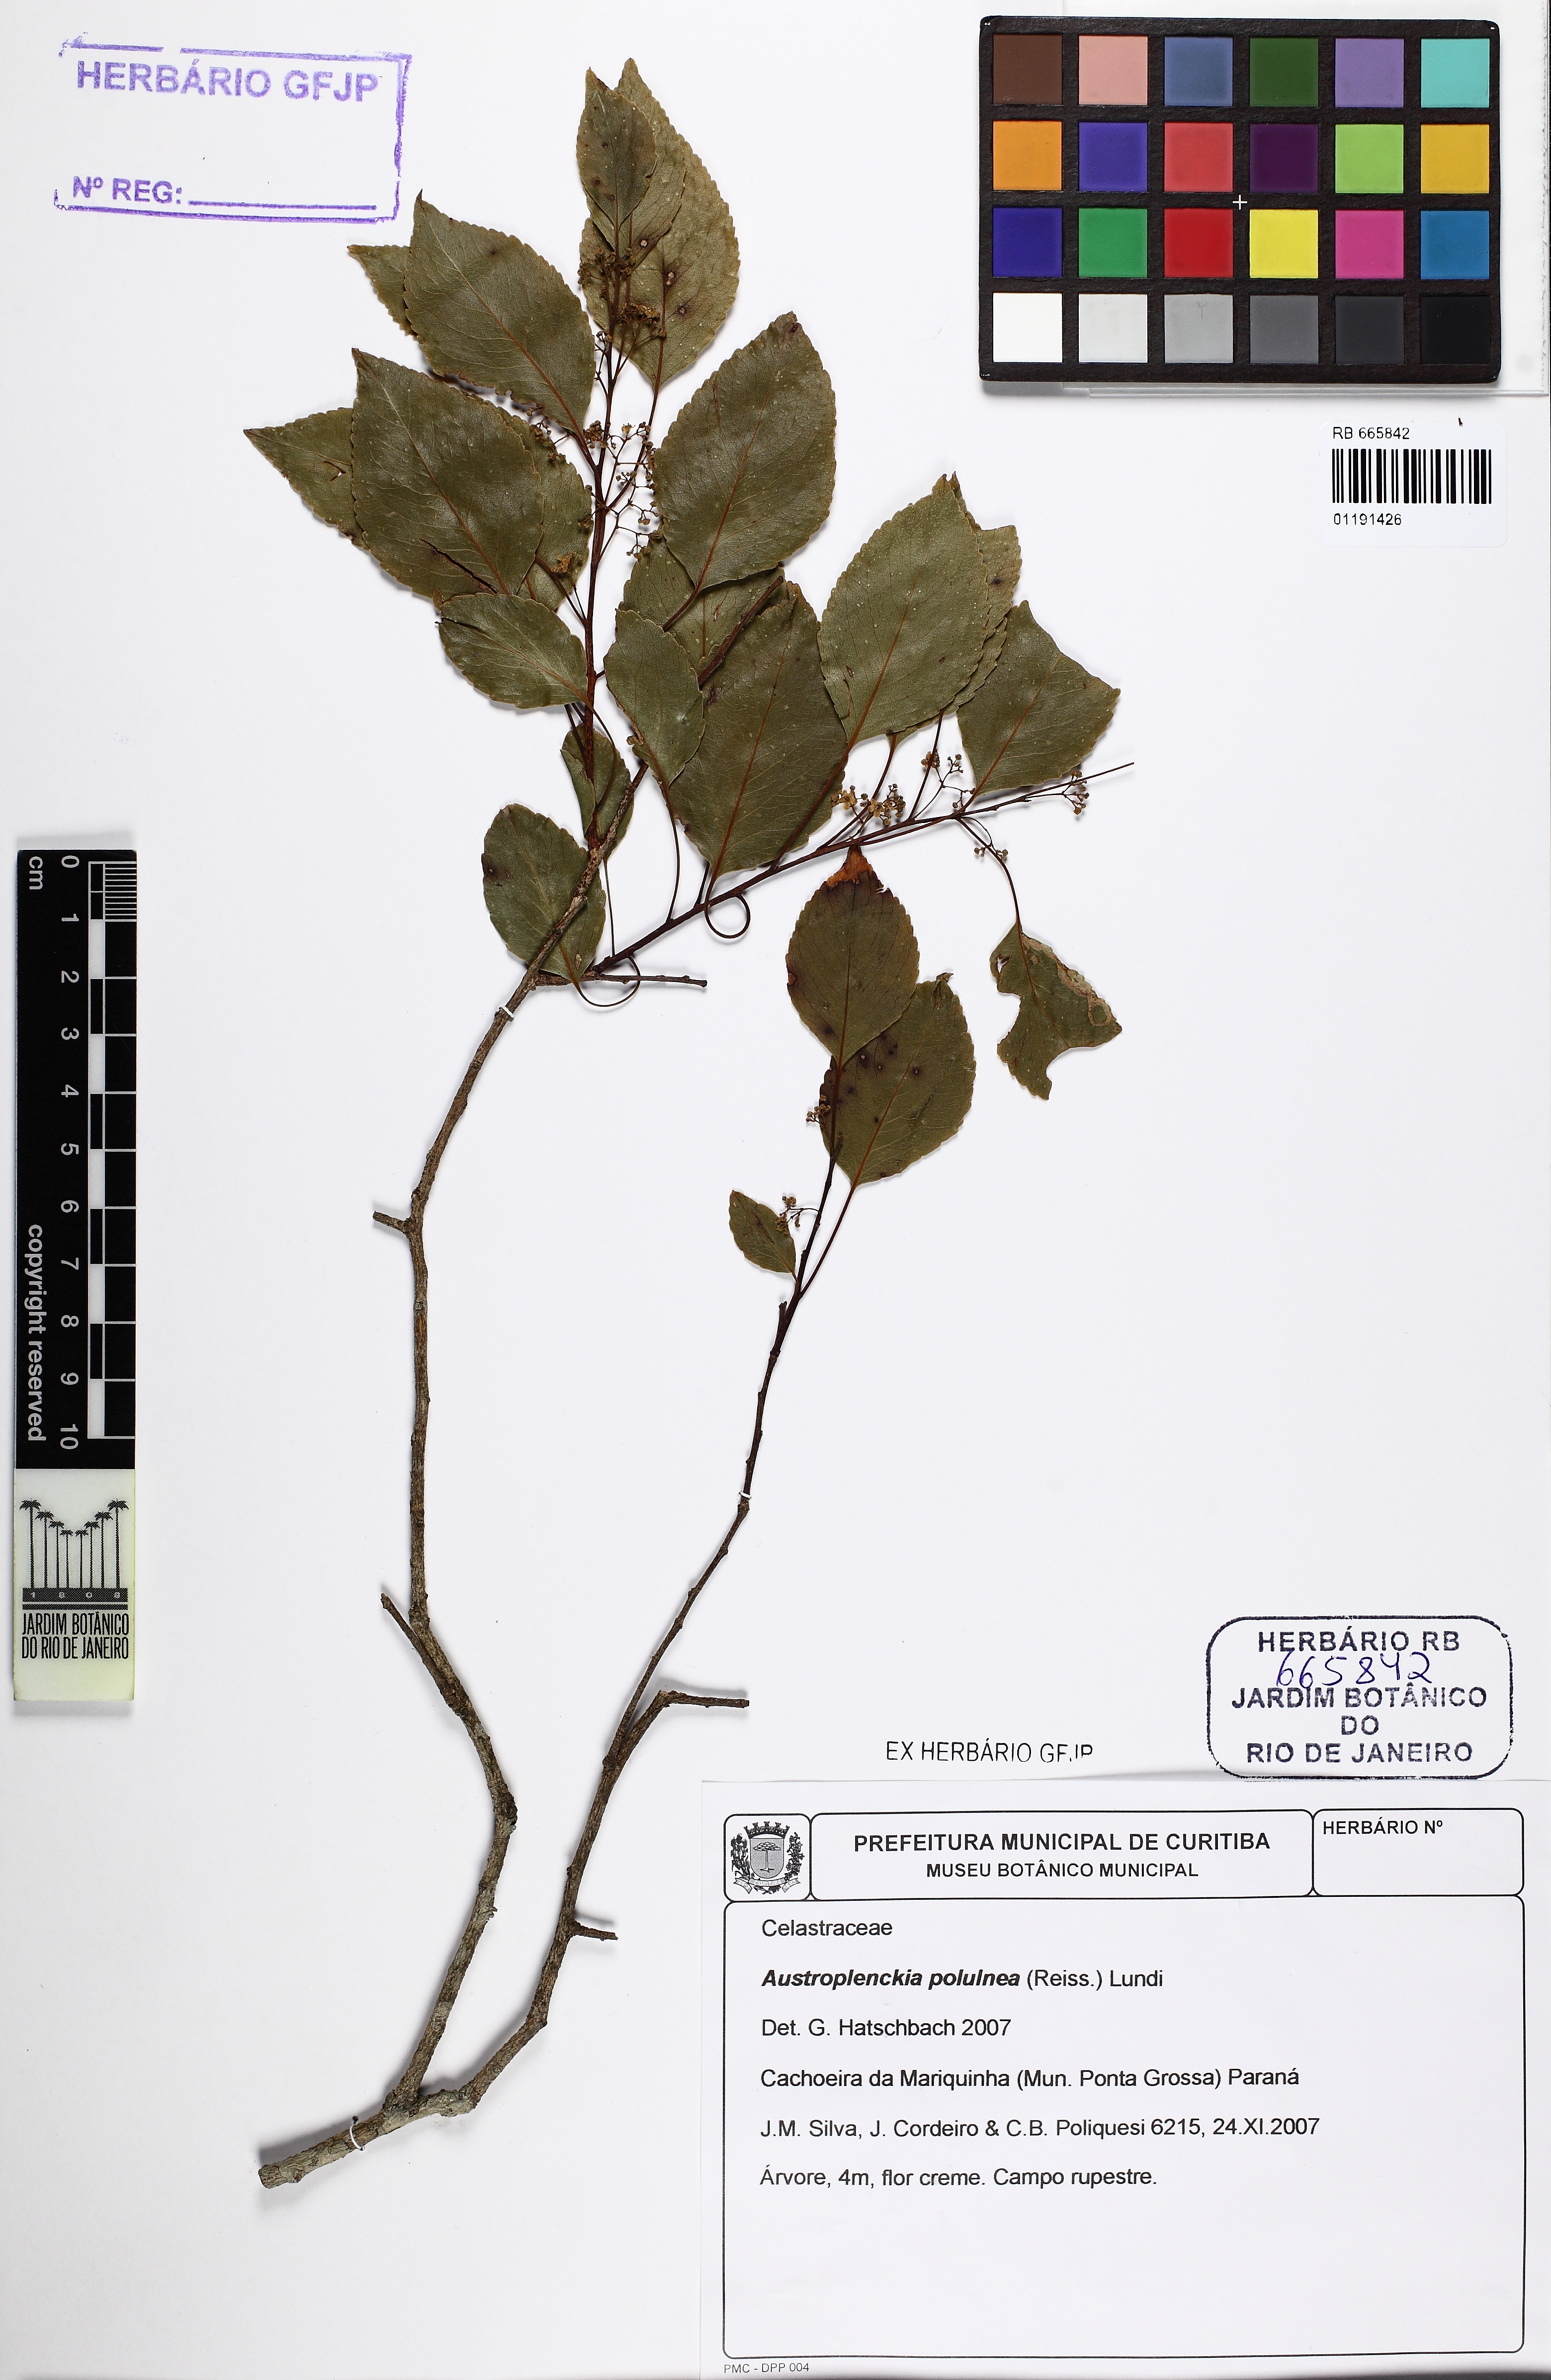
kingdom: Plantae
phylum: Tracheophyta
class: Magnoliopsida
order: Celastrales
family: Celastraceae
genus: Plenckia
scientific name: Plenckia populnea
